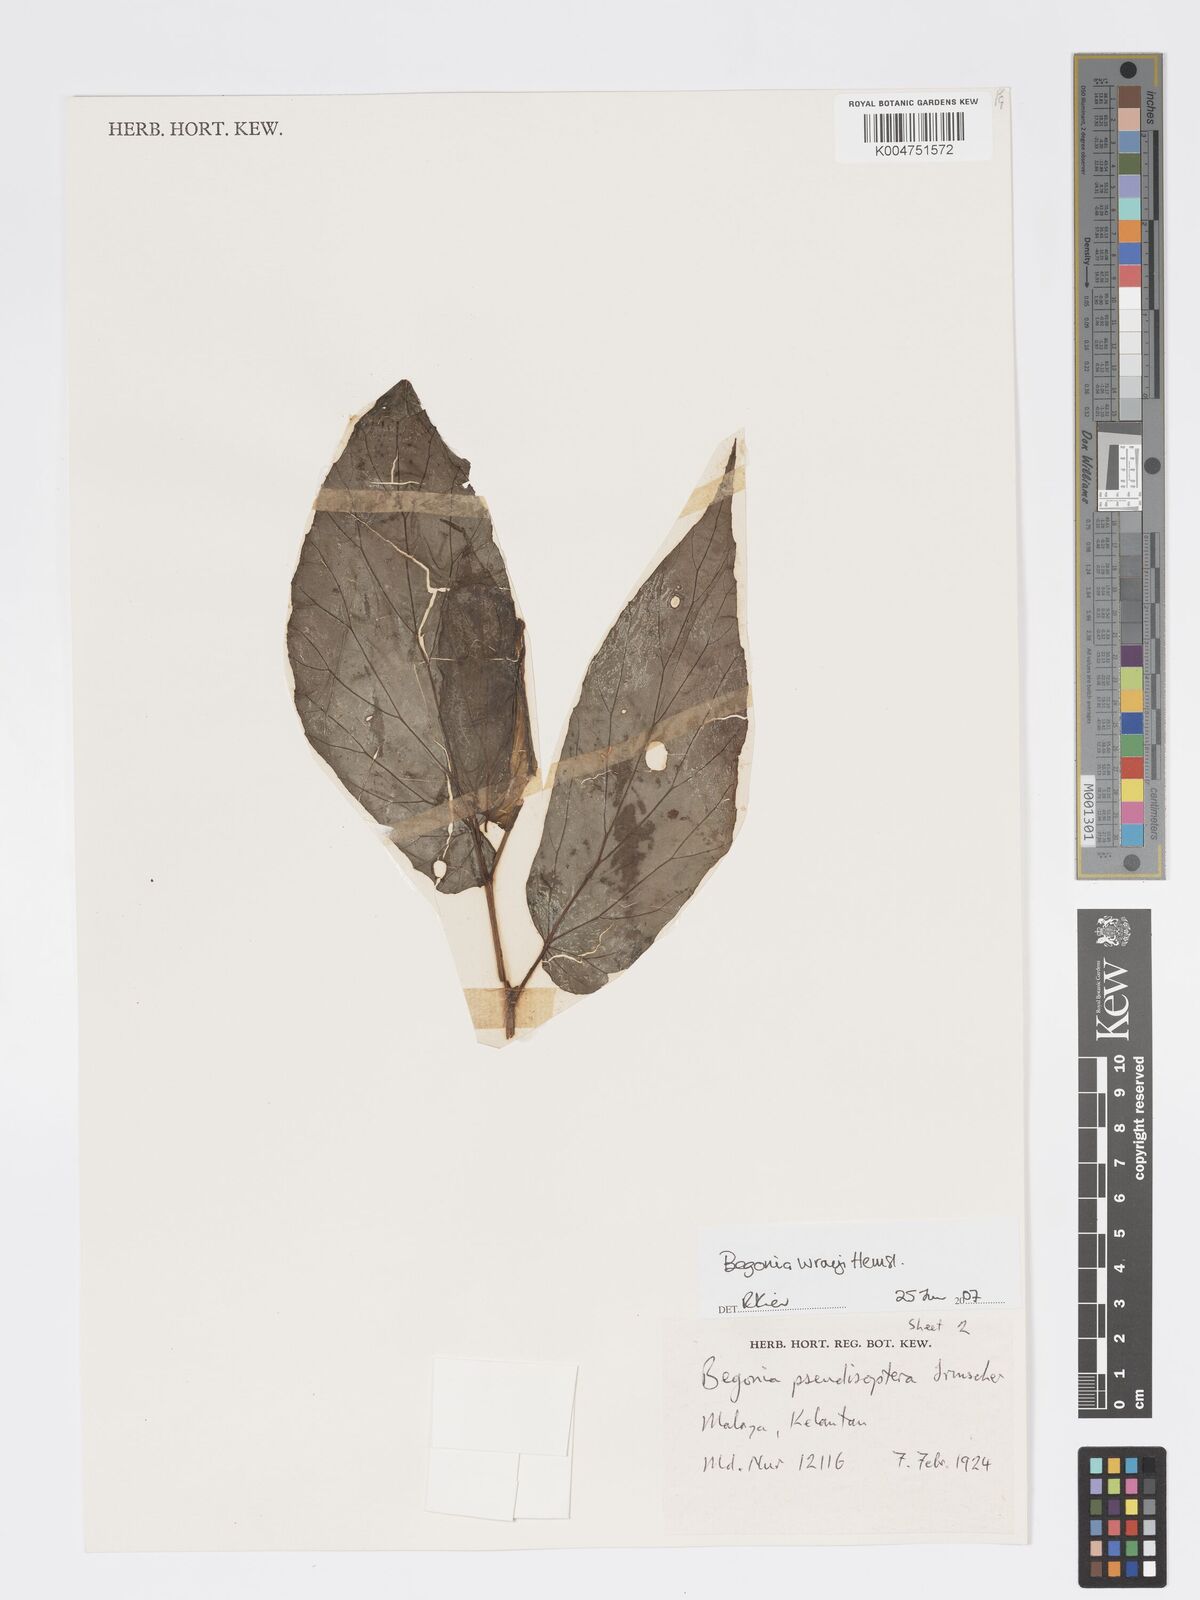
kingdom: Plantae
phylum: Tracheophyta
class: Magnoliopsida
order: Cucurbitales
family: Begoniaceae
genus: Begonia
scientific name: Begonia wrayi
